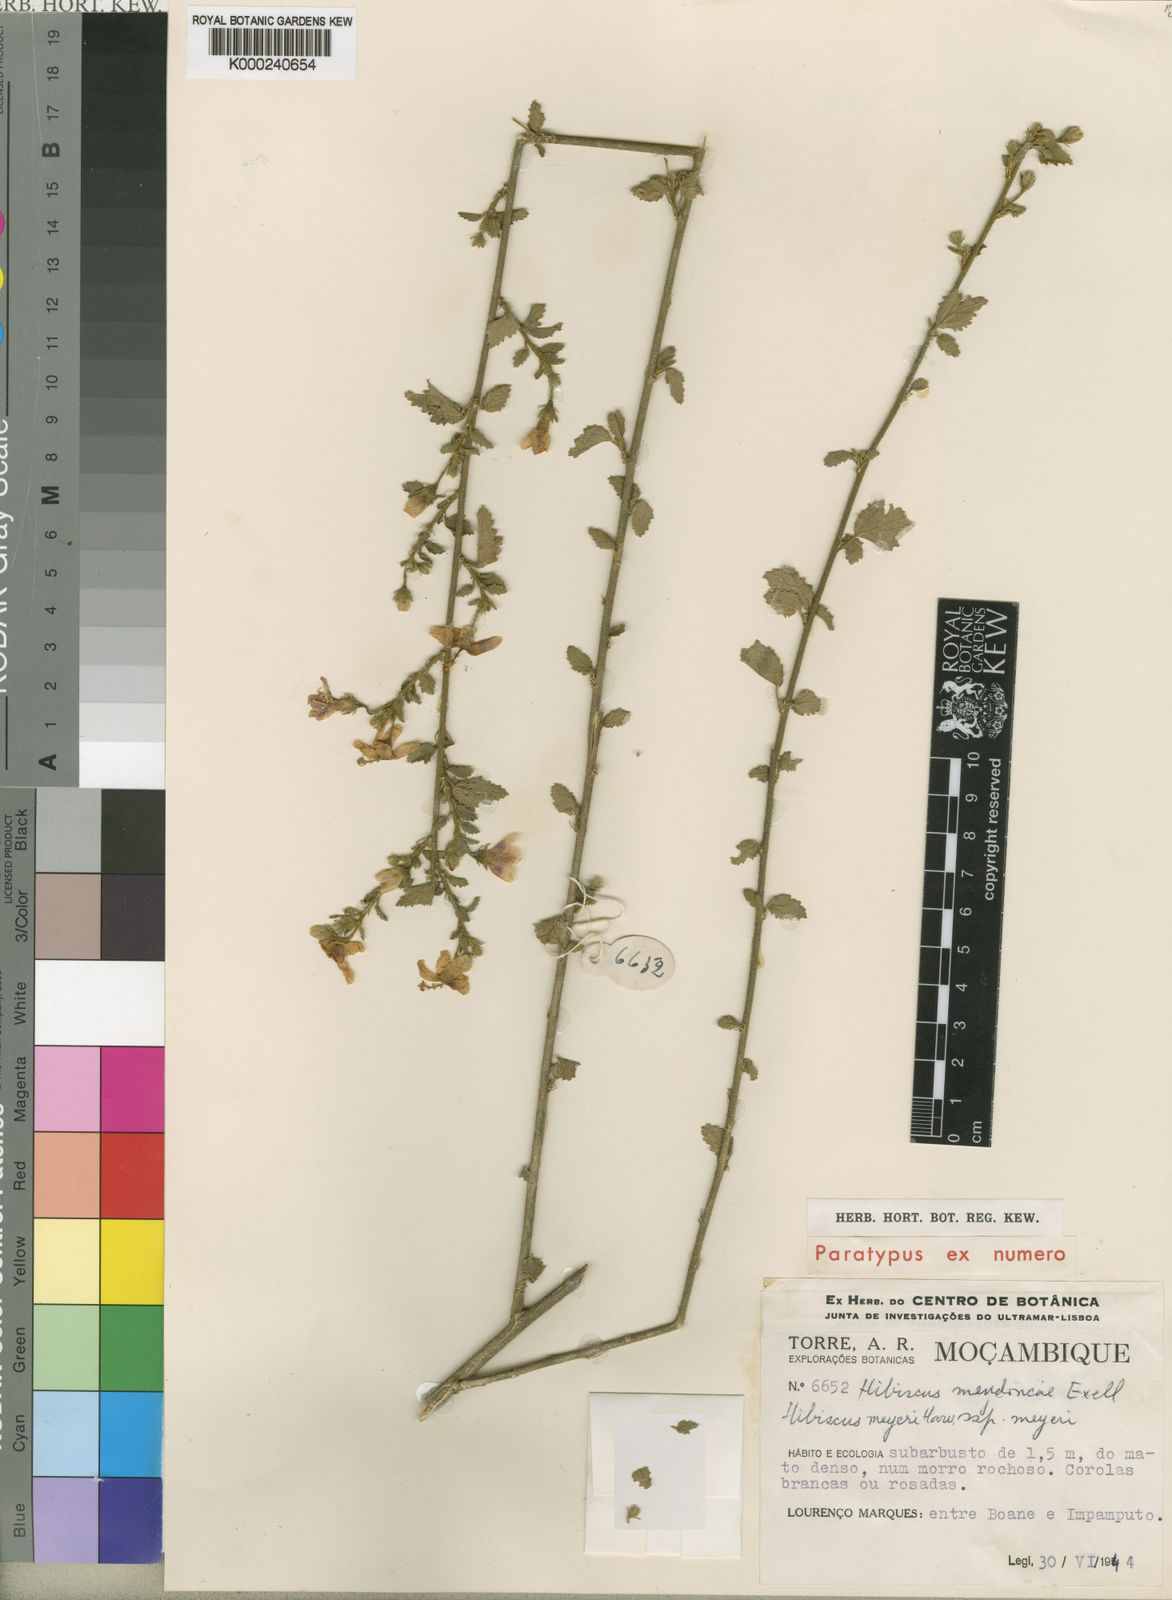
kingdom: Plantae
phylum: Tracheophyta
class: Magnoliopsida
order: Malvales
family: Malvaceae
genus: Hibiscus
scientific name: Hibiscus meyeri
